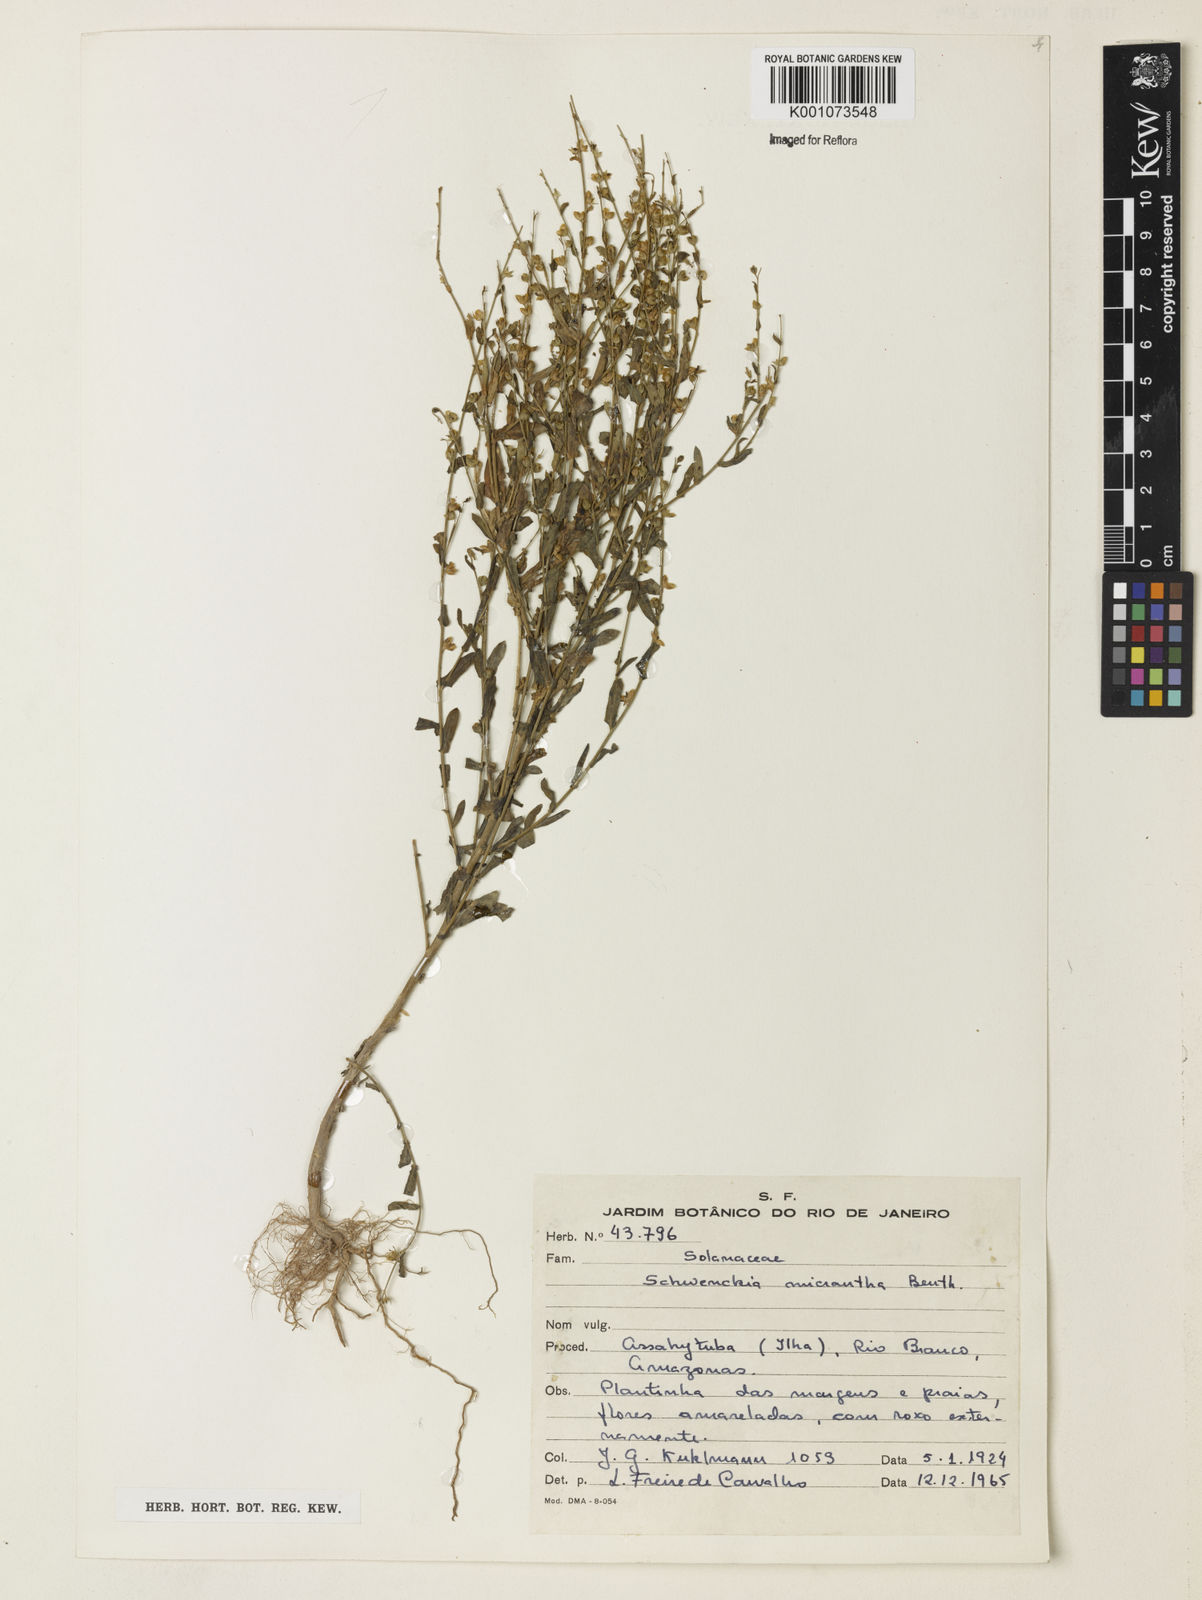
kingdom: Plantae
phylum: Tracheophyta
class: Magnoliopsida
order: Solanales
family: Solanaceae
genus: Schwenckia
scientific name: Schwenckia micrantha
